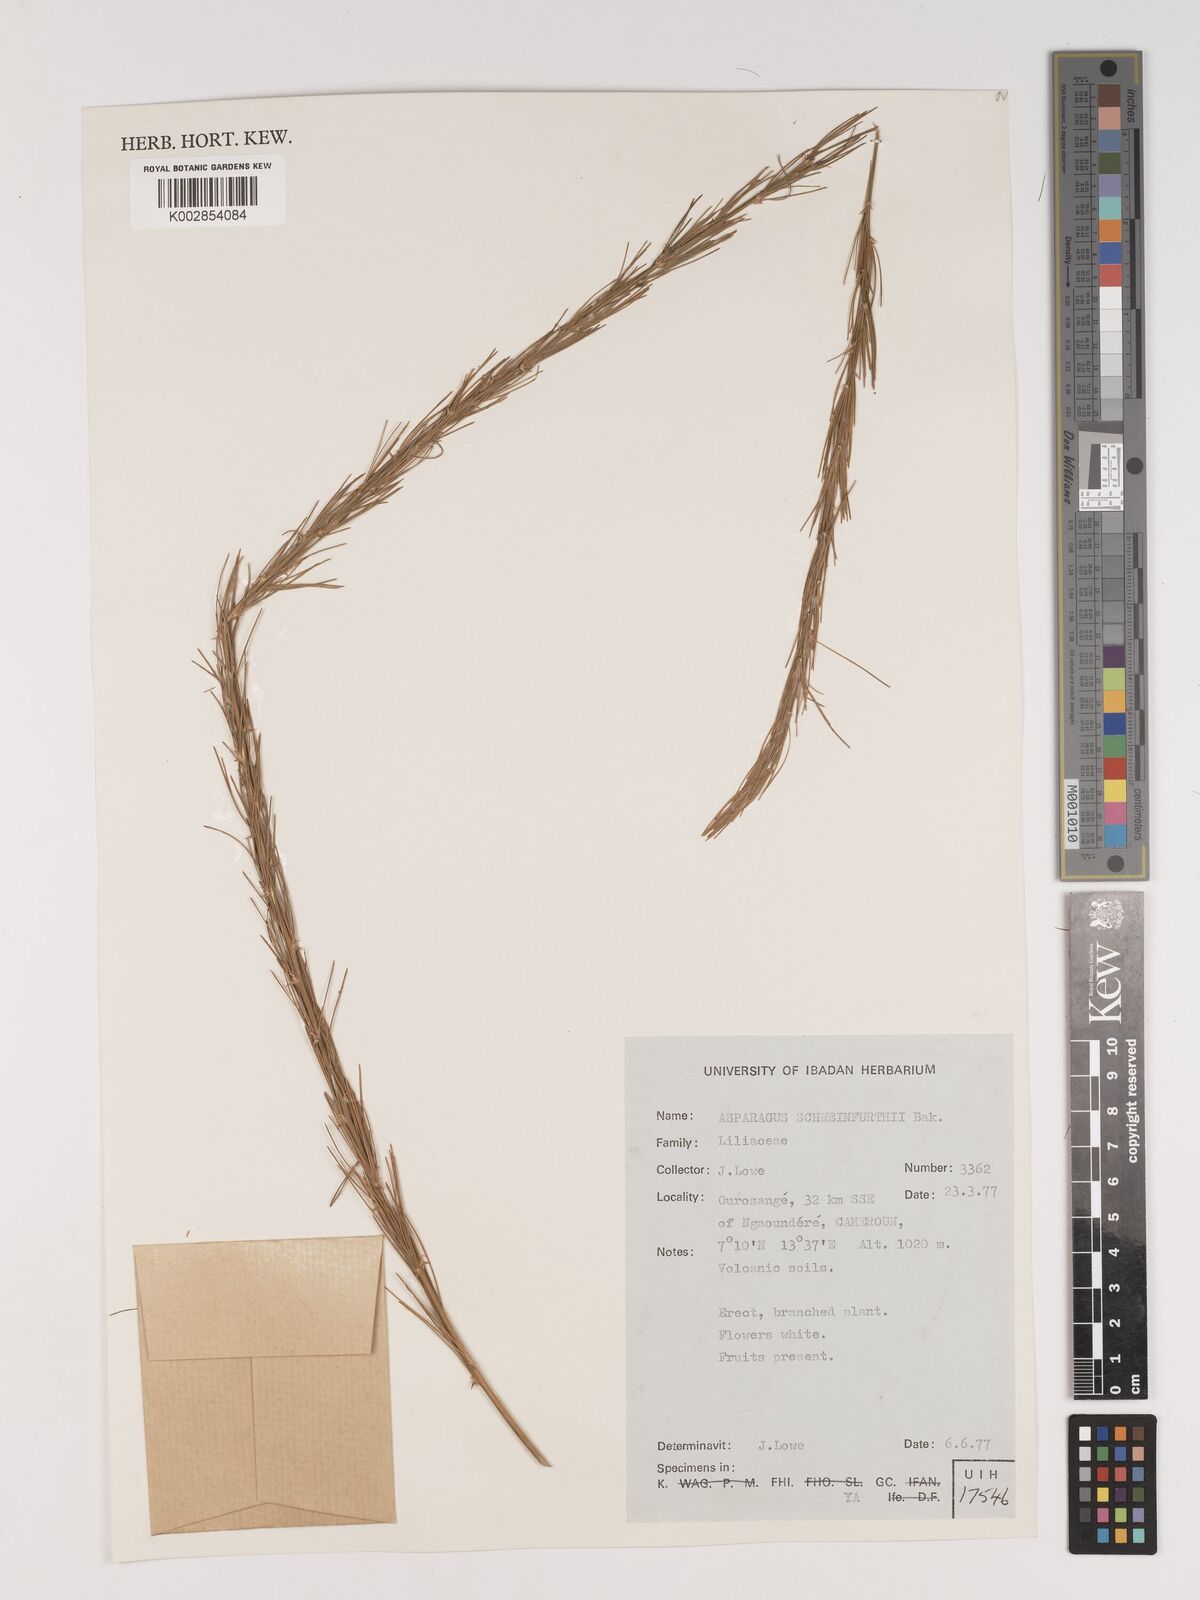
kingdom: Plantae
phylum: Tracheophyta
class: Liliopsida
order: Asparagales
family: Asparagaceae
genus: Asparagus
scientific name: Asparagus flagellaris
